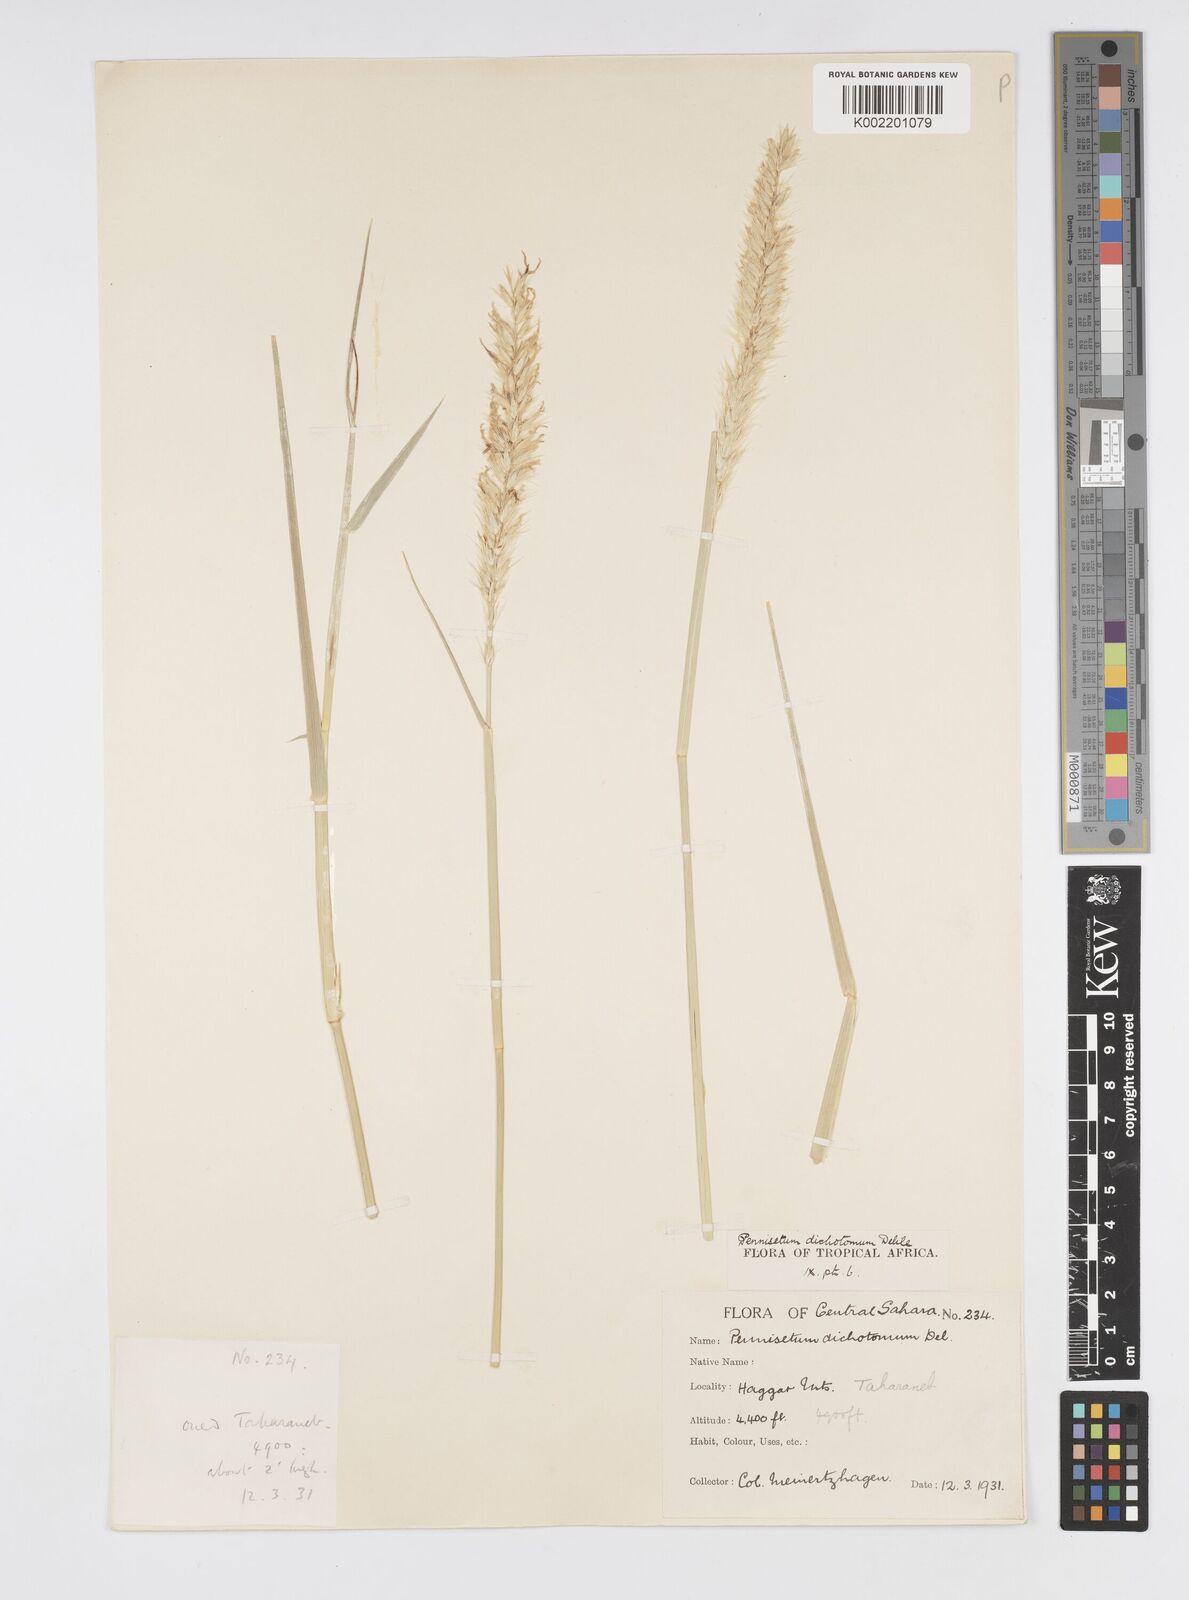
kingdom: Plantae
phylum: Tracheophyta
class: Liliopsida
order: Poales
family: Poaceae
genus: Cenchrus
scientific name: Cenchrus divisus
